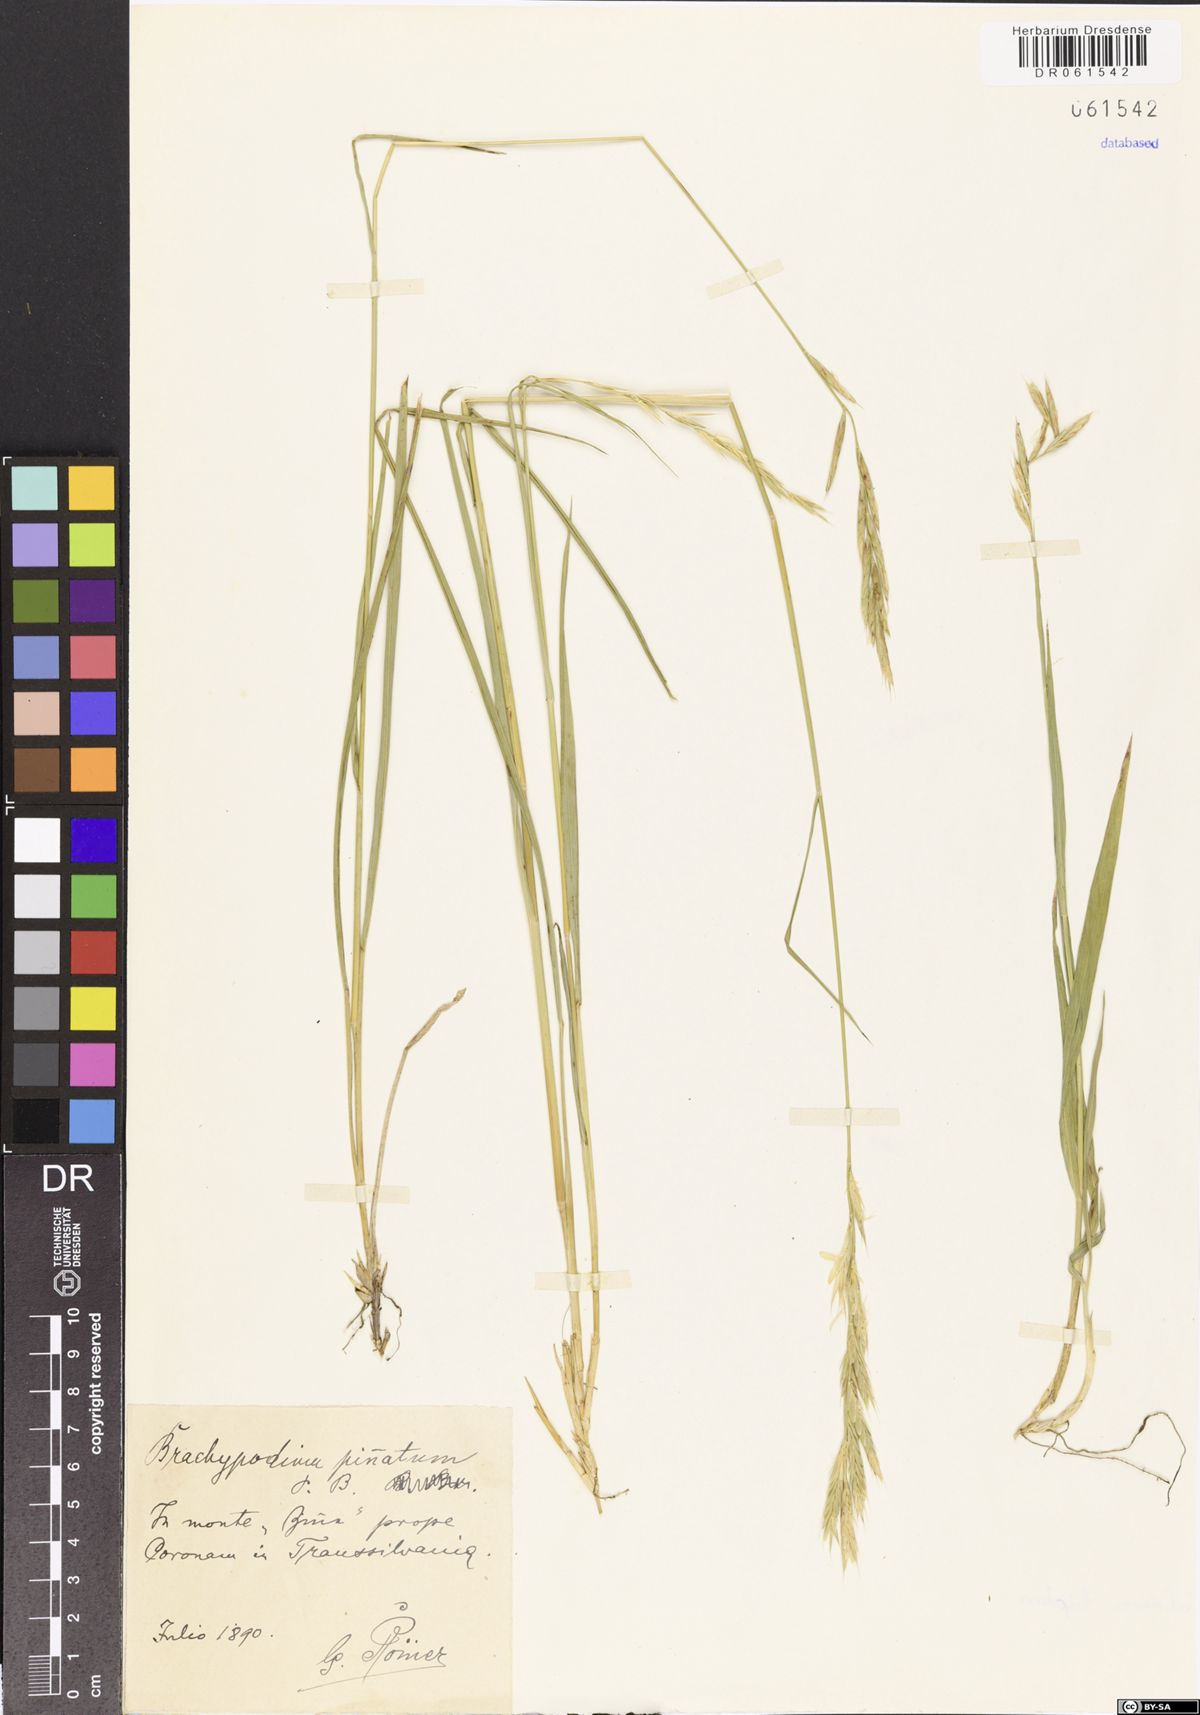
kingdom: Plantae
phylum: Tracheophyta
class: Liliopsida
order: Poales
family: Poaceae
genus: Brachypodium
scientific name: Brachypodium pinnatum
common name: Tor grass
